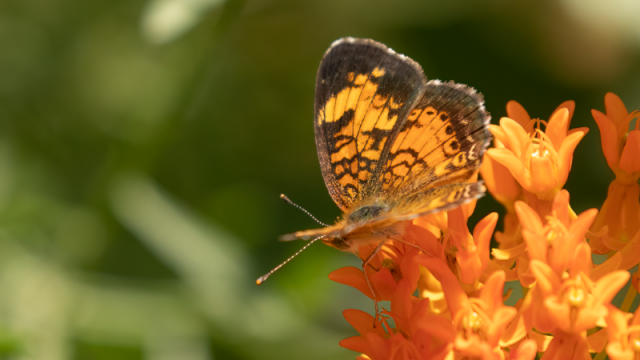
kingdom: Animalia
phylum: Arthropoda
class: Insecta
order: Lepidoptera
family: Nymphalidae
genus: Phyciodes
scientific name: Phyciodes tharos
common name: Northern Crescent
